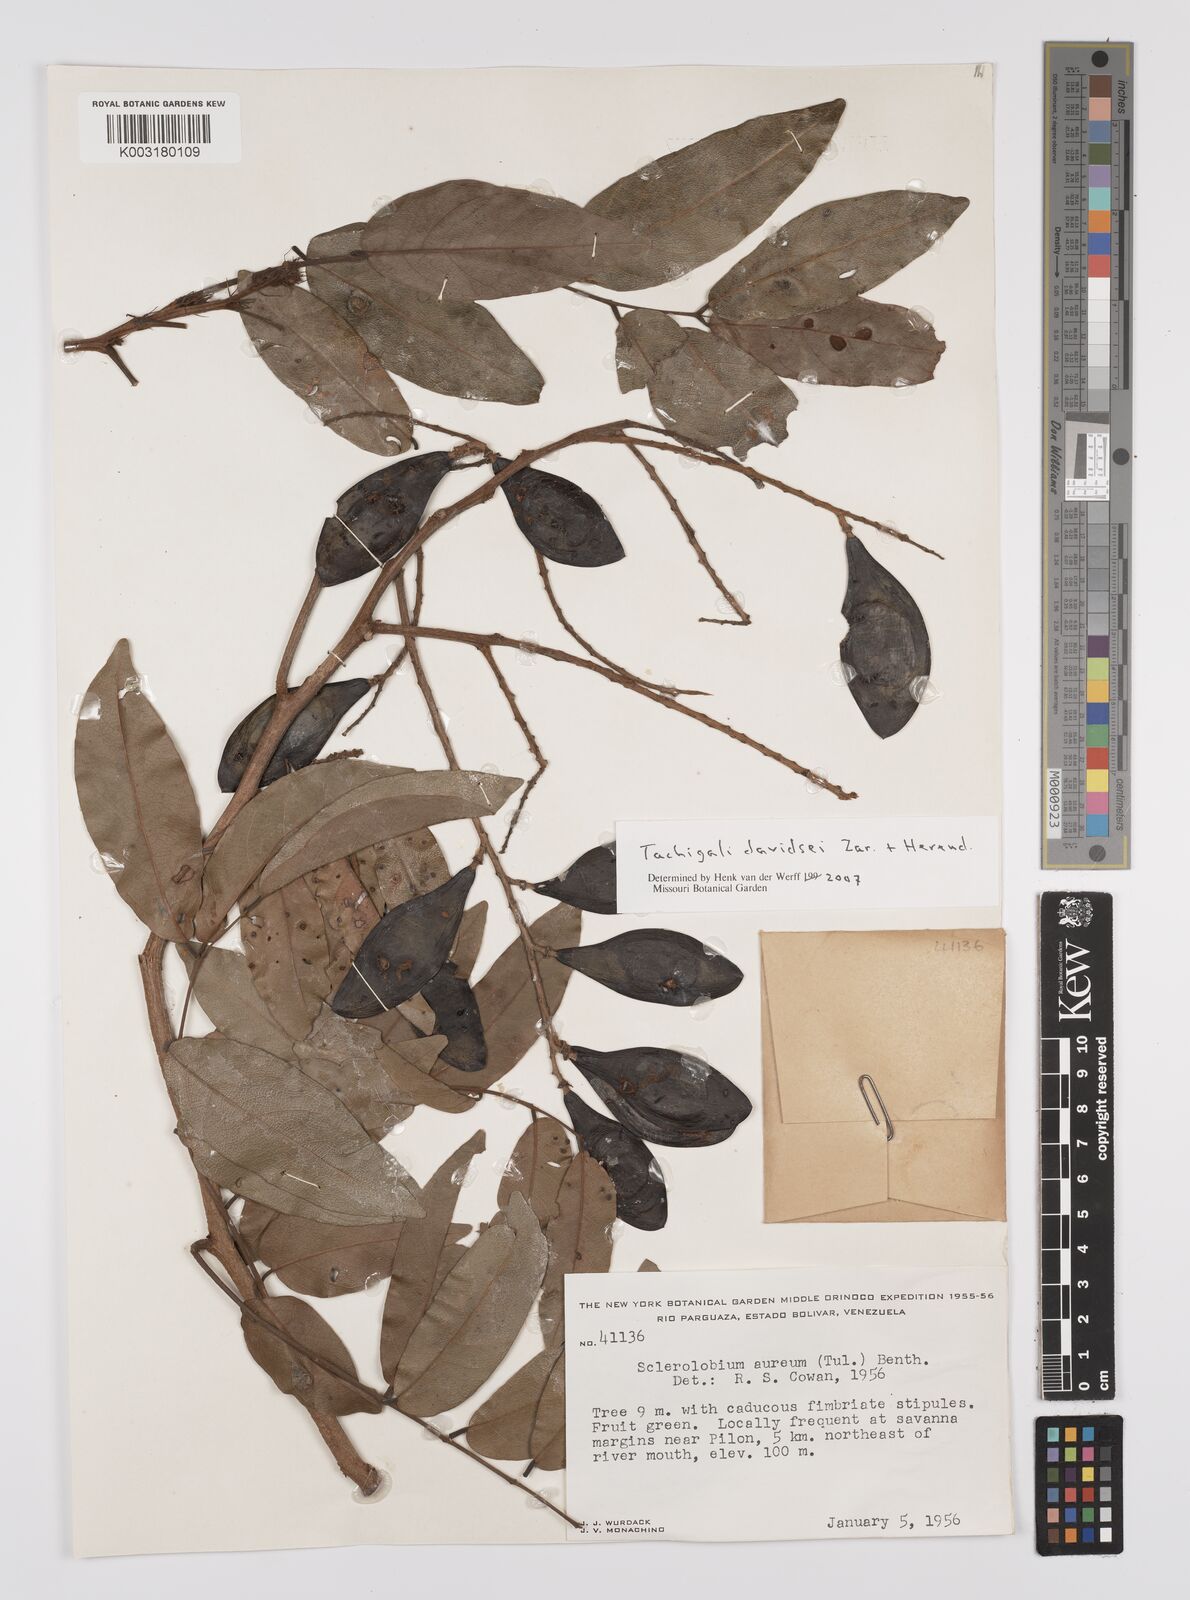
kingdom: Plantae
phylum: Tracheophyta
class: Magnoliopsida
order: Fabales
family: Fabaceae
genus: Tachigali
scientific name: Tachigali davidsei
